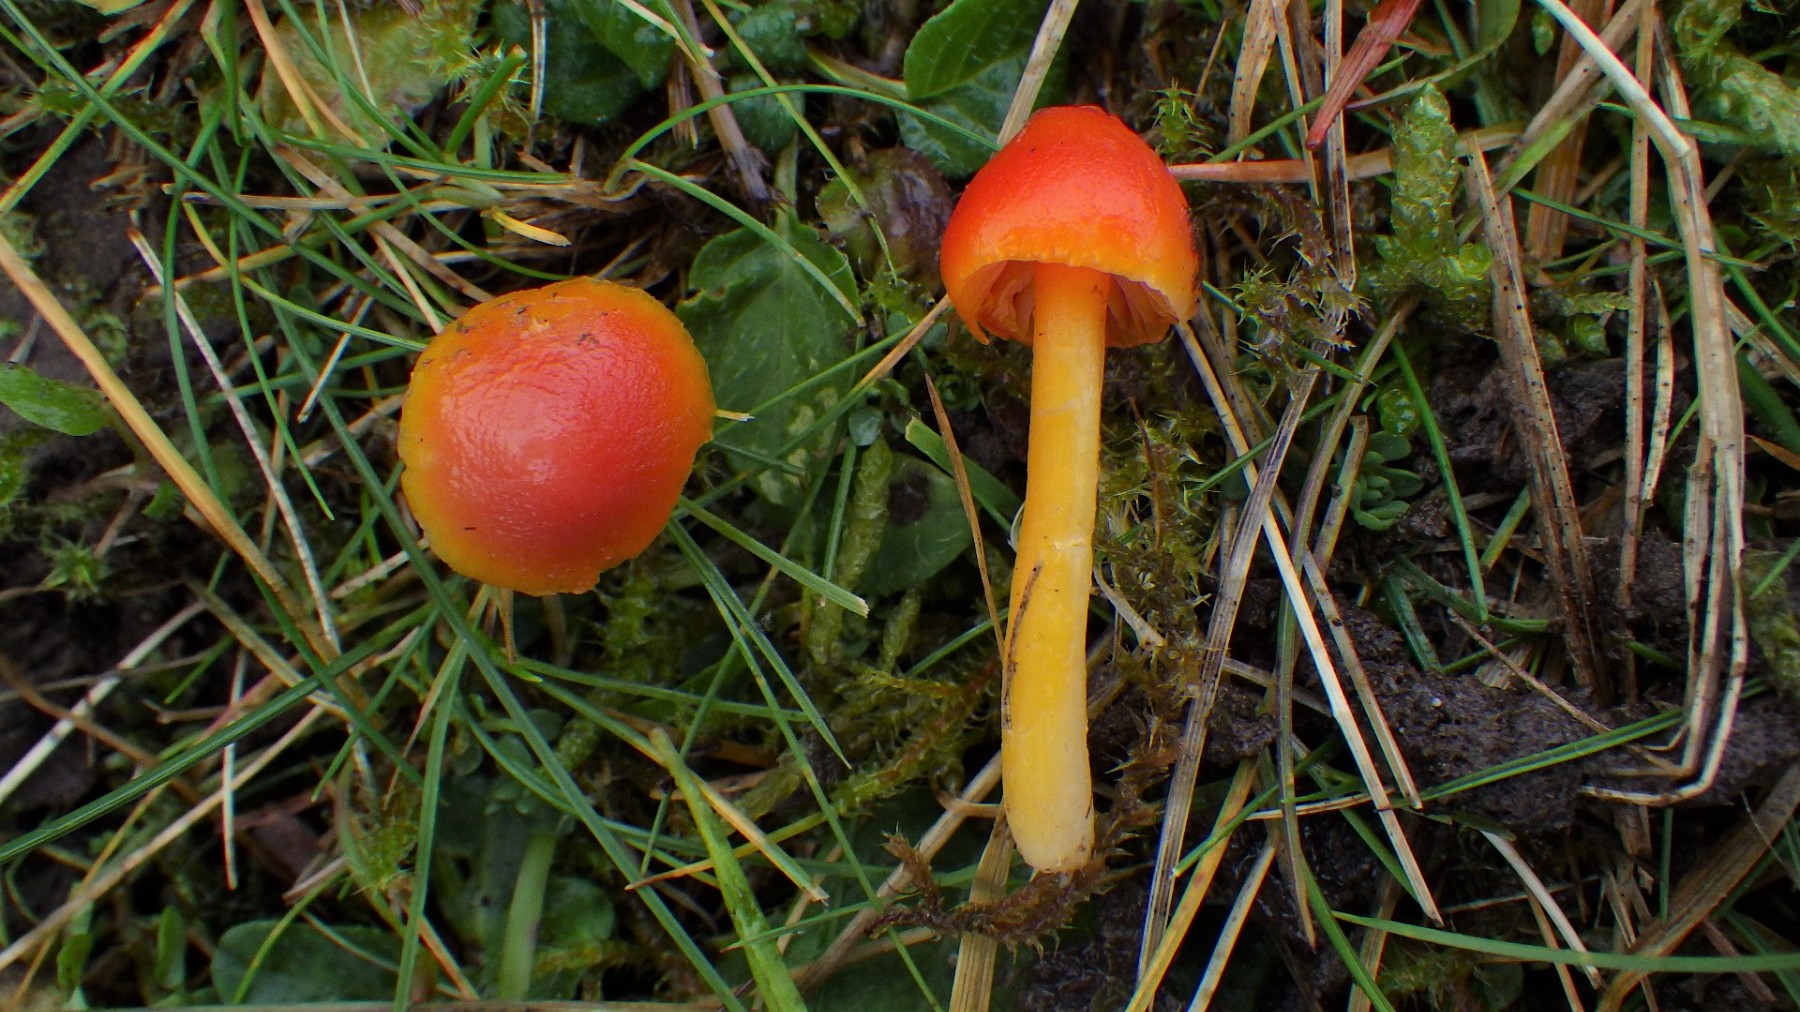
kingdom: Fungi
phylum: Basidiomycota
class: Agaricomycetes
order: Agaricales
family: Hygrophoraceae
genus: Hygrocybe
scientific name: Hygrocybe insipida
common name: liden vokshat
